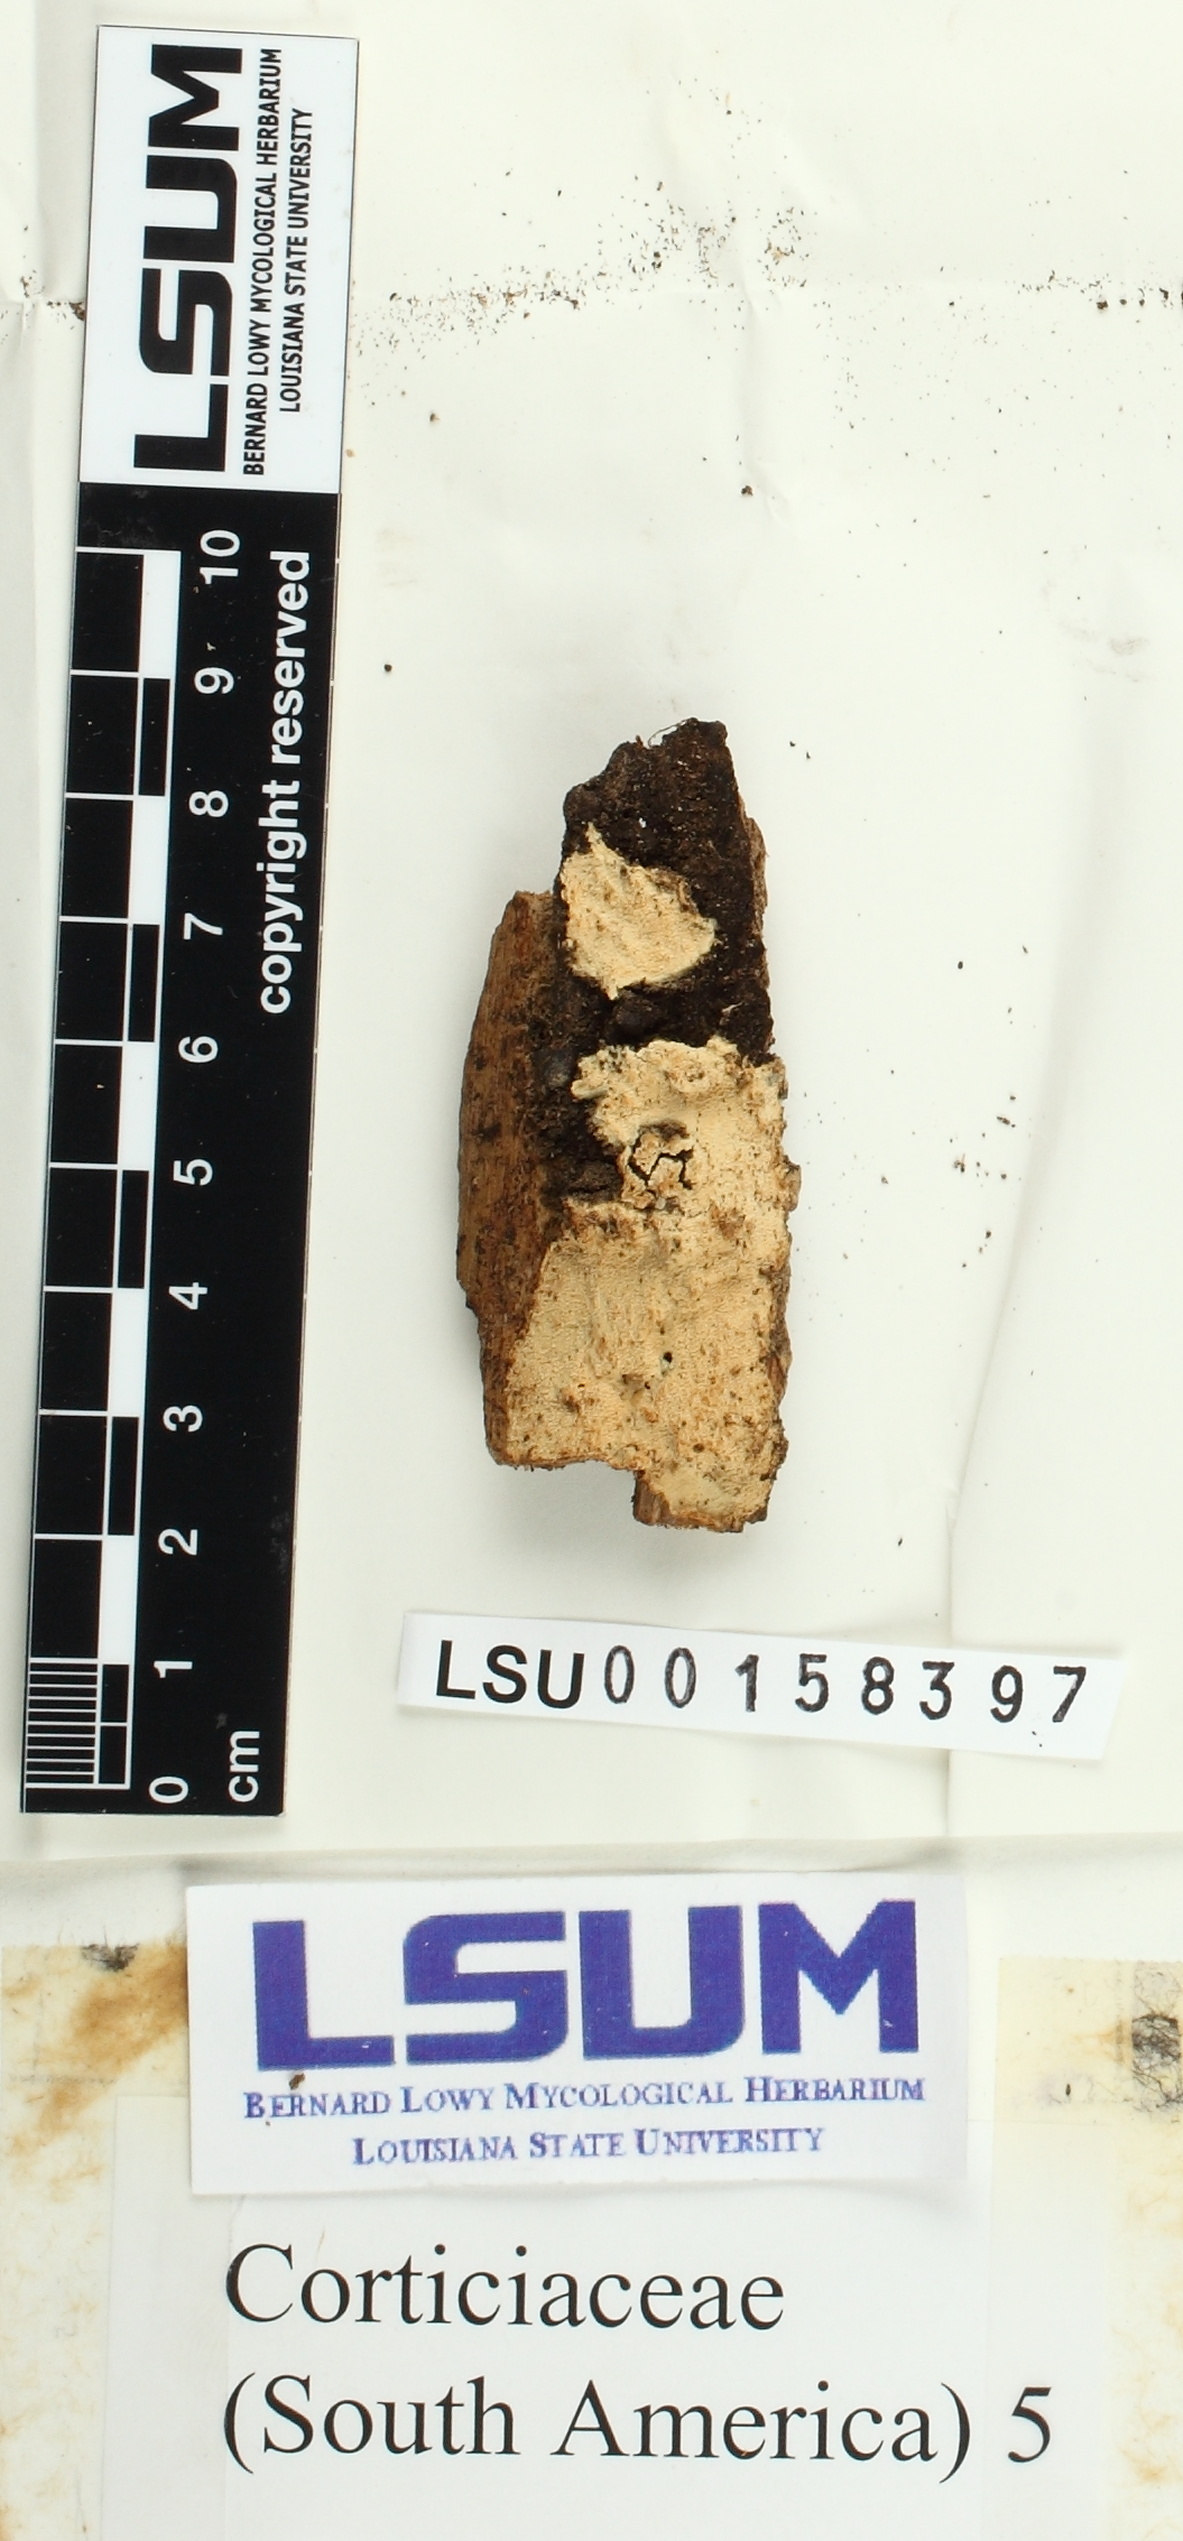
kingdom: Fungi
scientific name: Fungi
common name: Fungi
